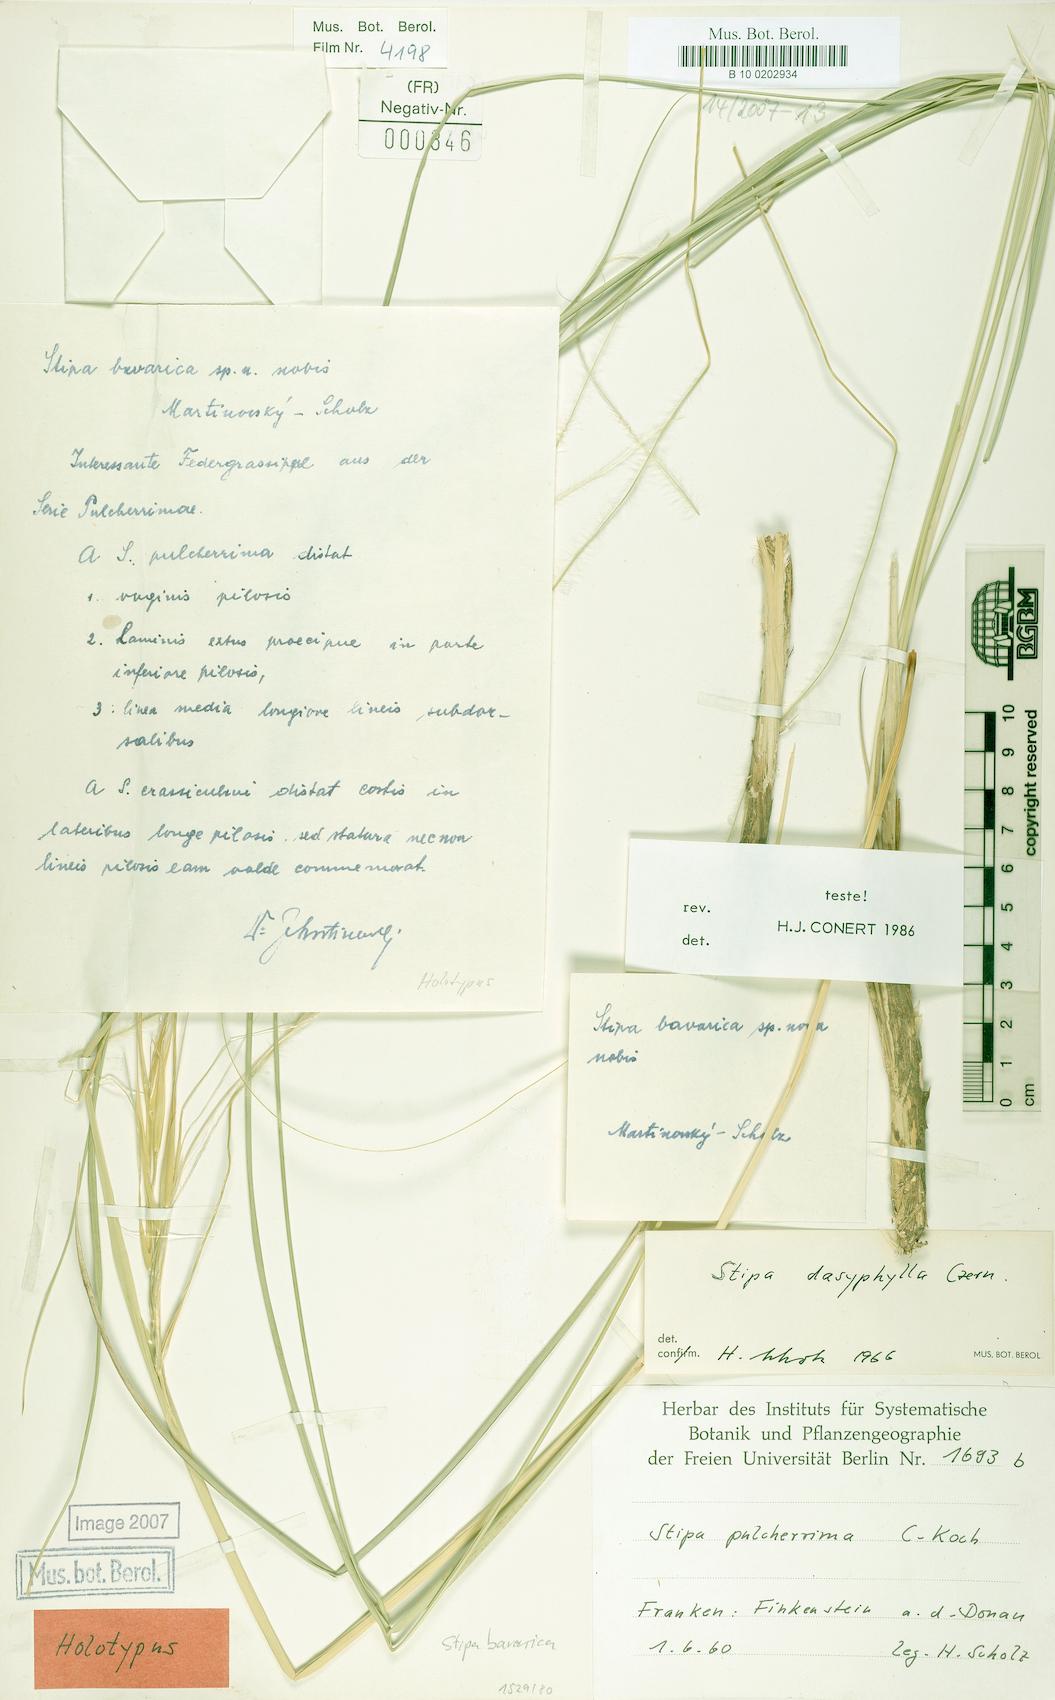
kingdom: Plantae
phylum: Tracheophyta
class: Liliopsida
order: Poales
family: Poaceae
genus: Stipa
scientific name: Stipa bavarica
